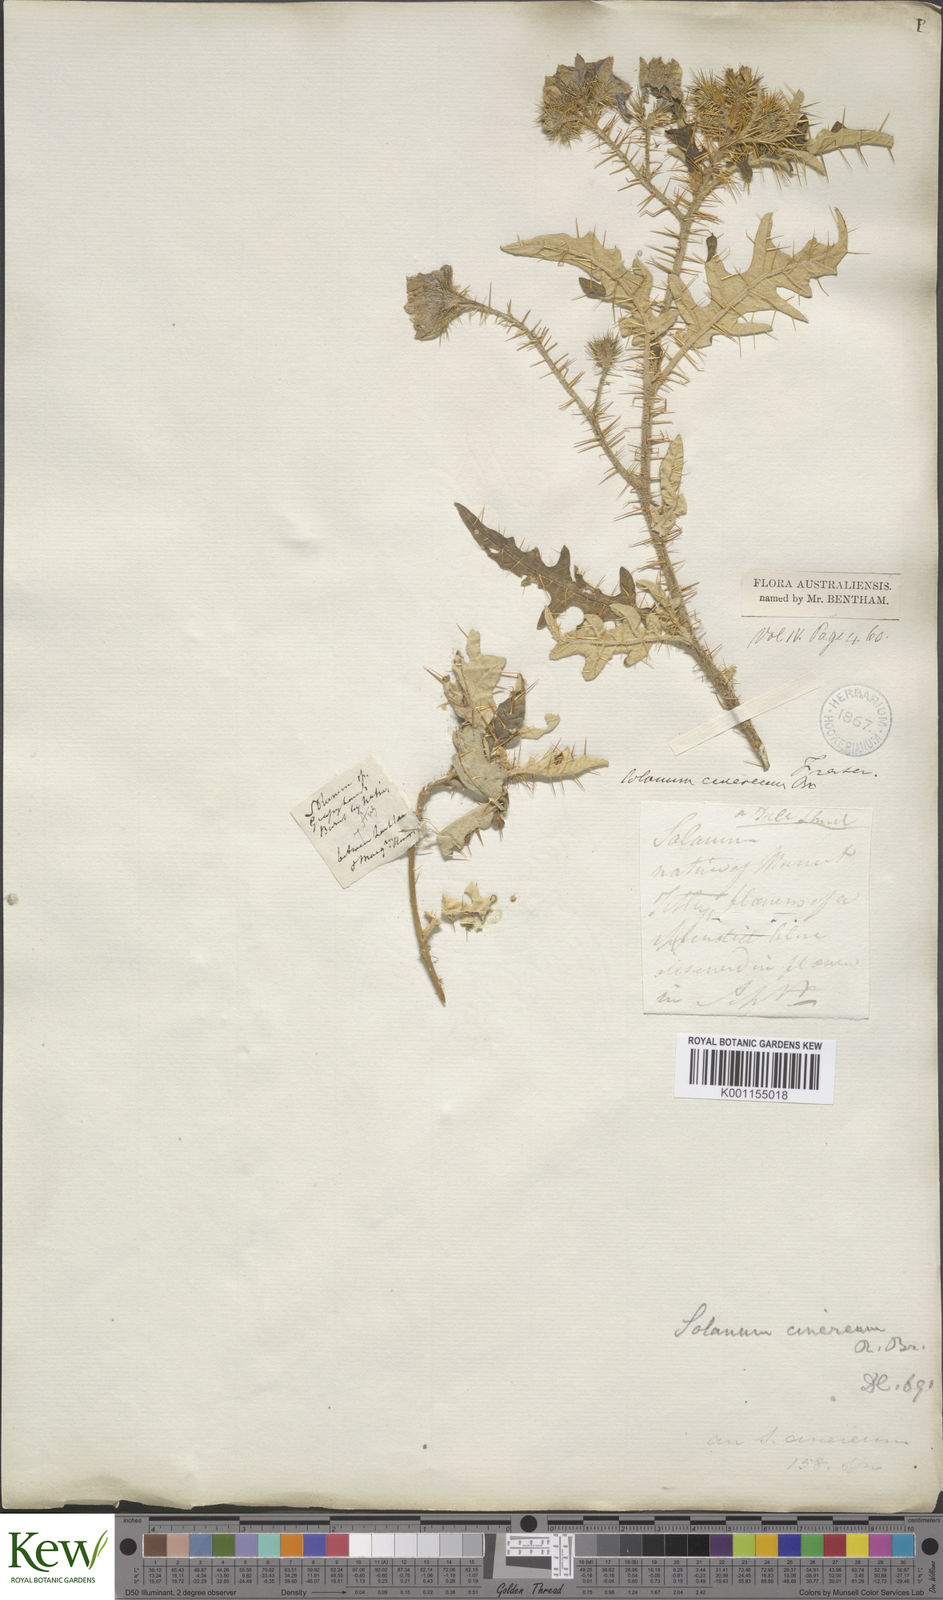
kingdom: Plantae
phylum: Tracheophyta
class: Magnoliopsida
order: Solanales
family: Solanaceae
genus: Solanum
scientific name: Solanum cinereum
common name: Narrawa-bur
